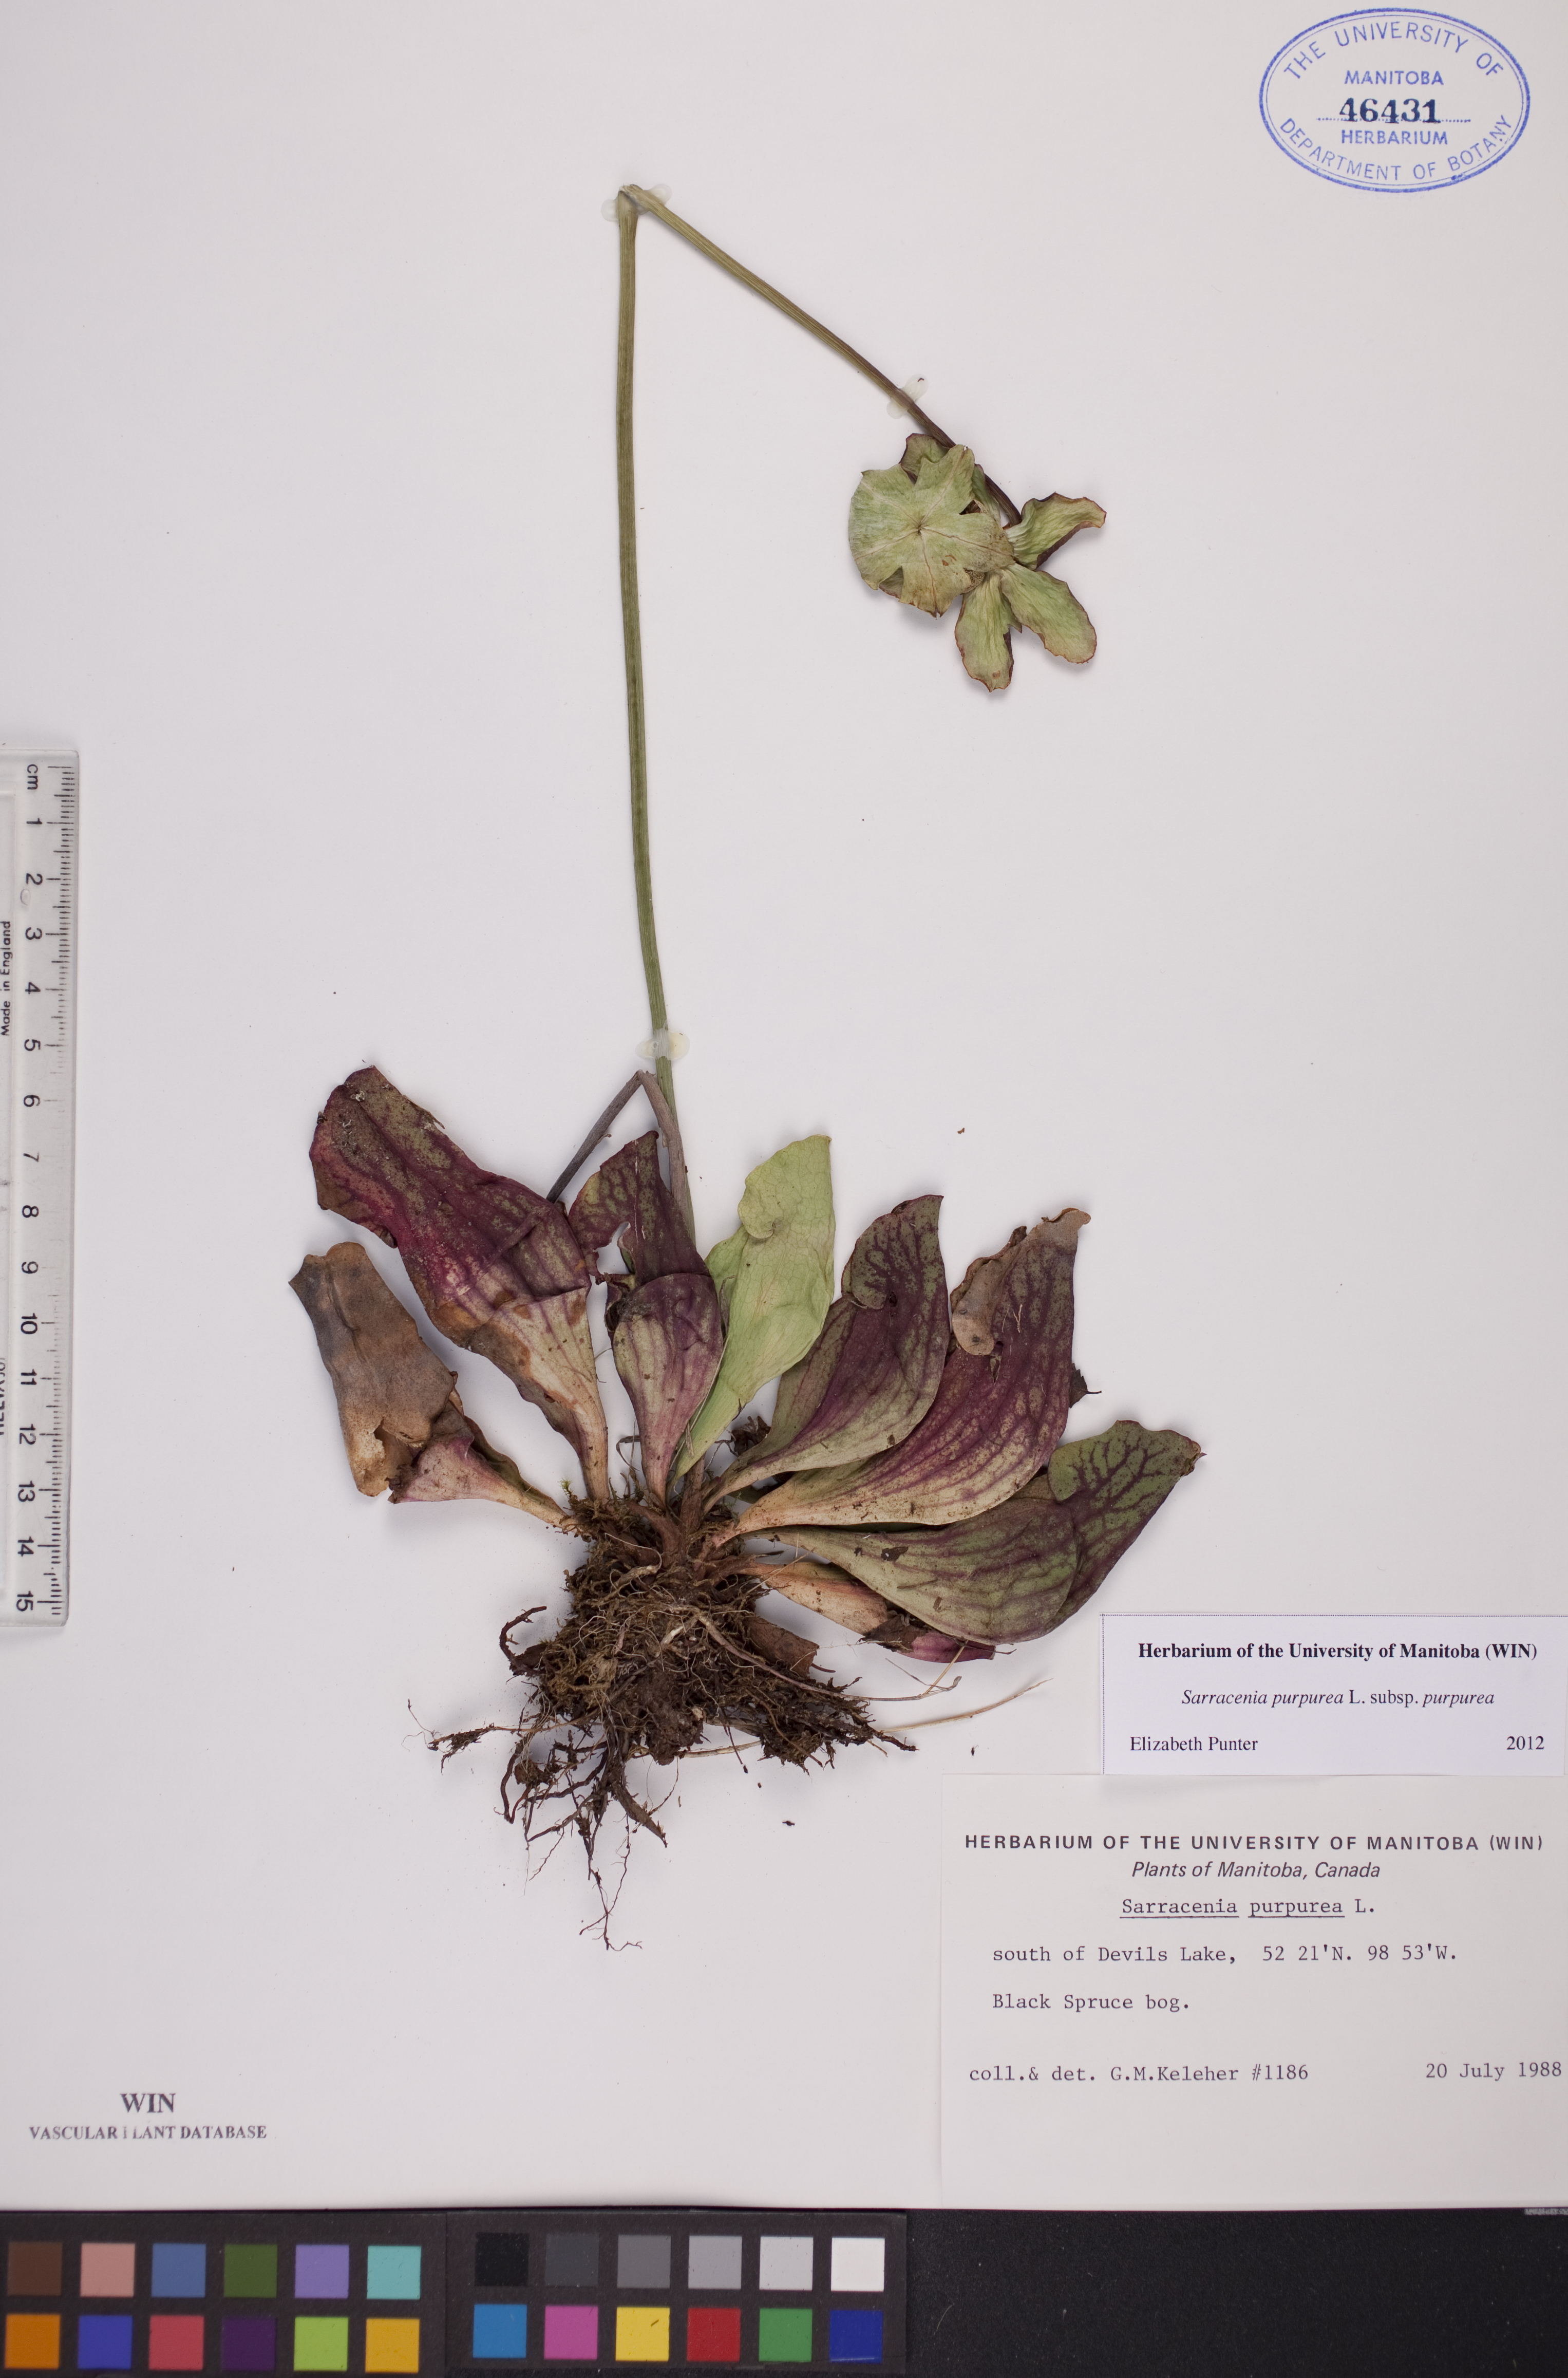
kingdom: Plantae
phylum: Tracheophyta
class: Magnoliopsida
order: Ericales
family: Sarraceniaceae
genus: Sarracenia
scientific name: Sarracenia purpurea
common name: Pitcherplant
